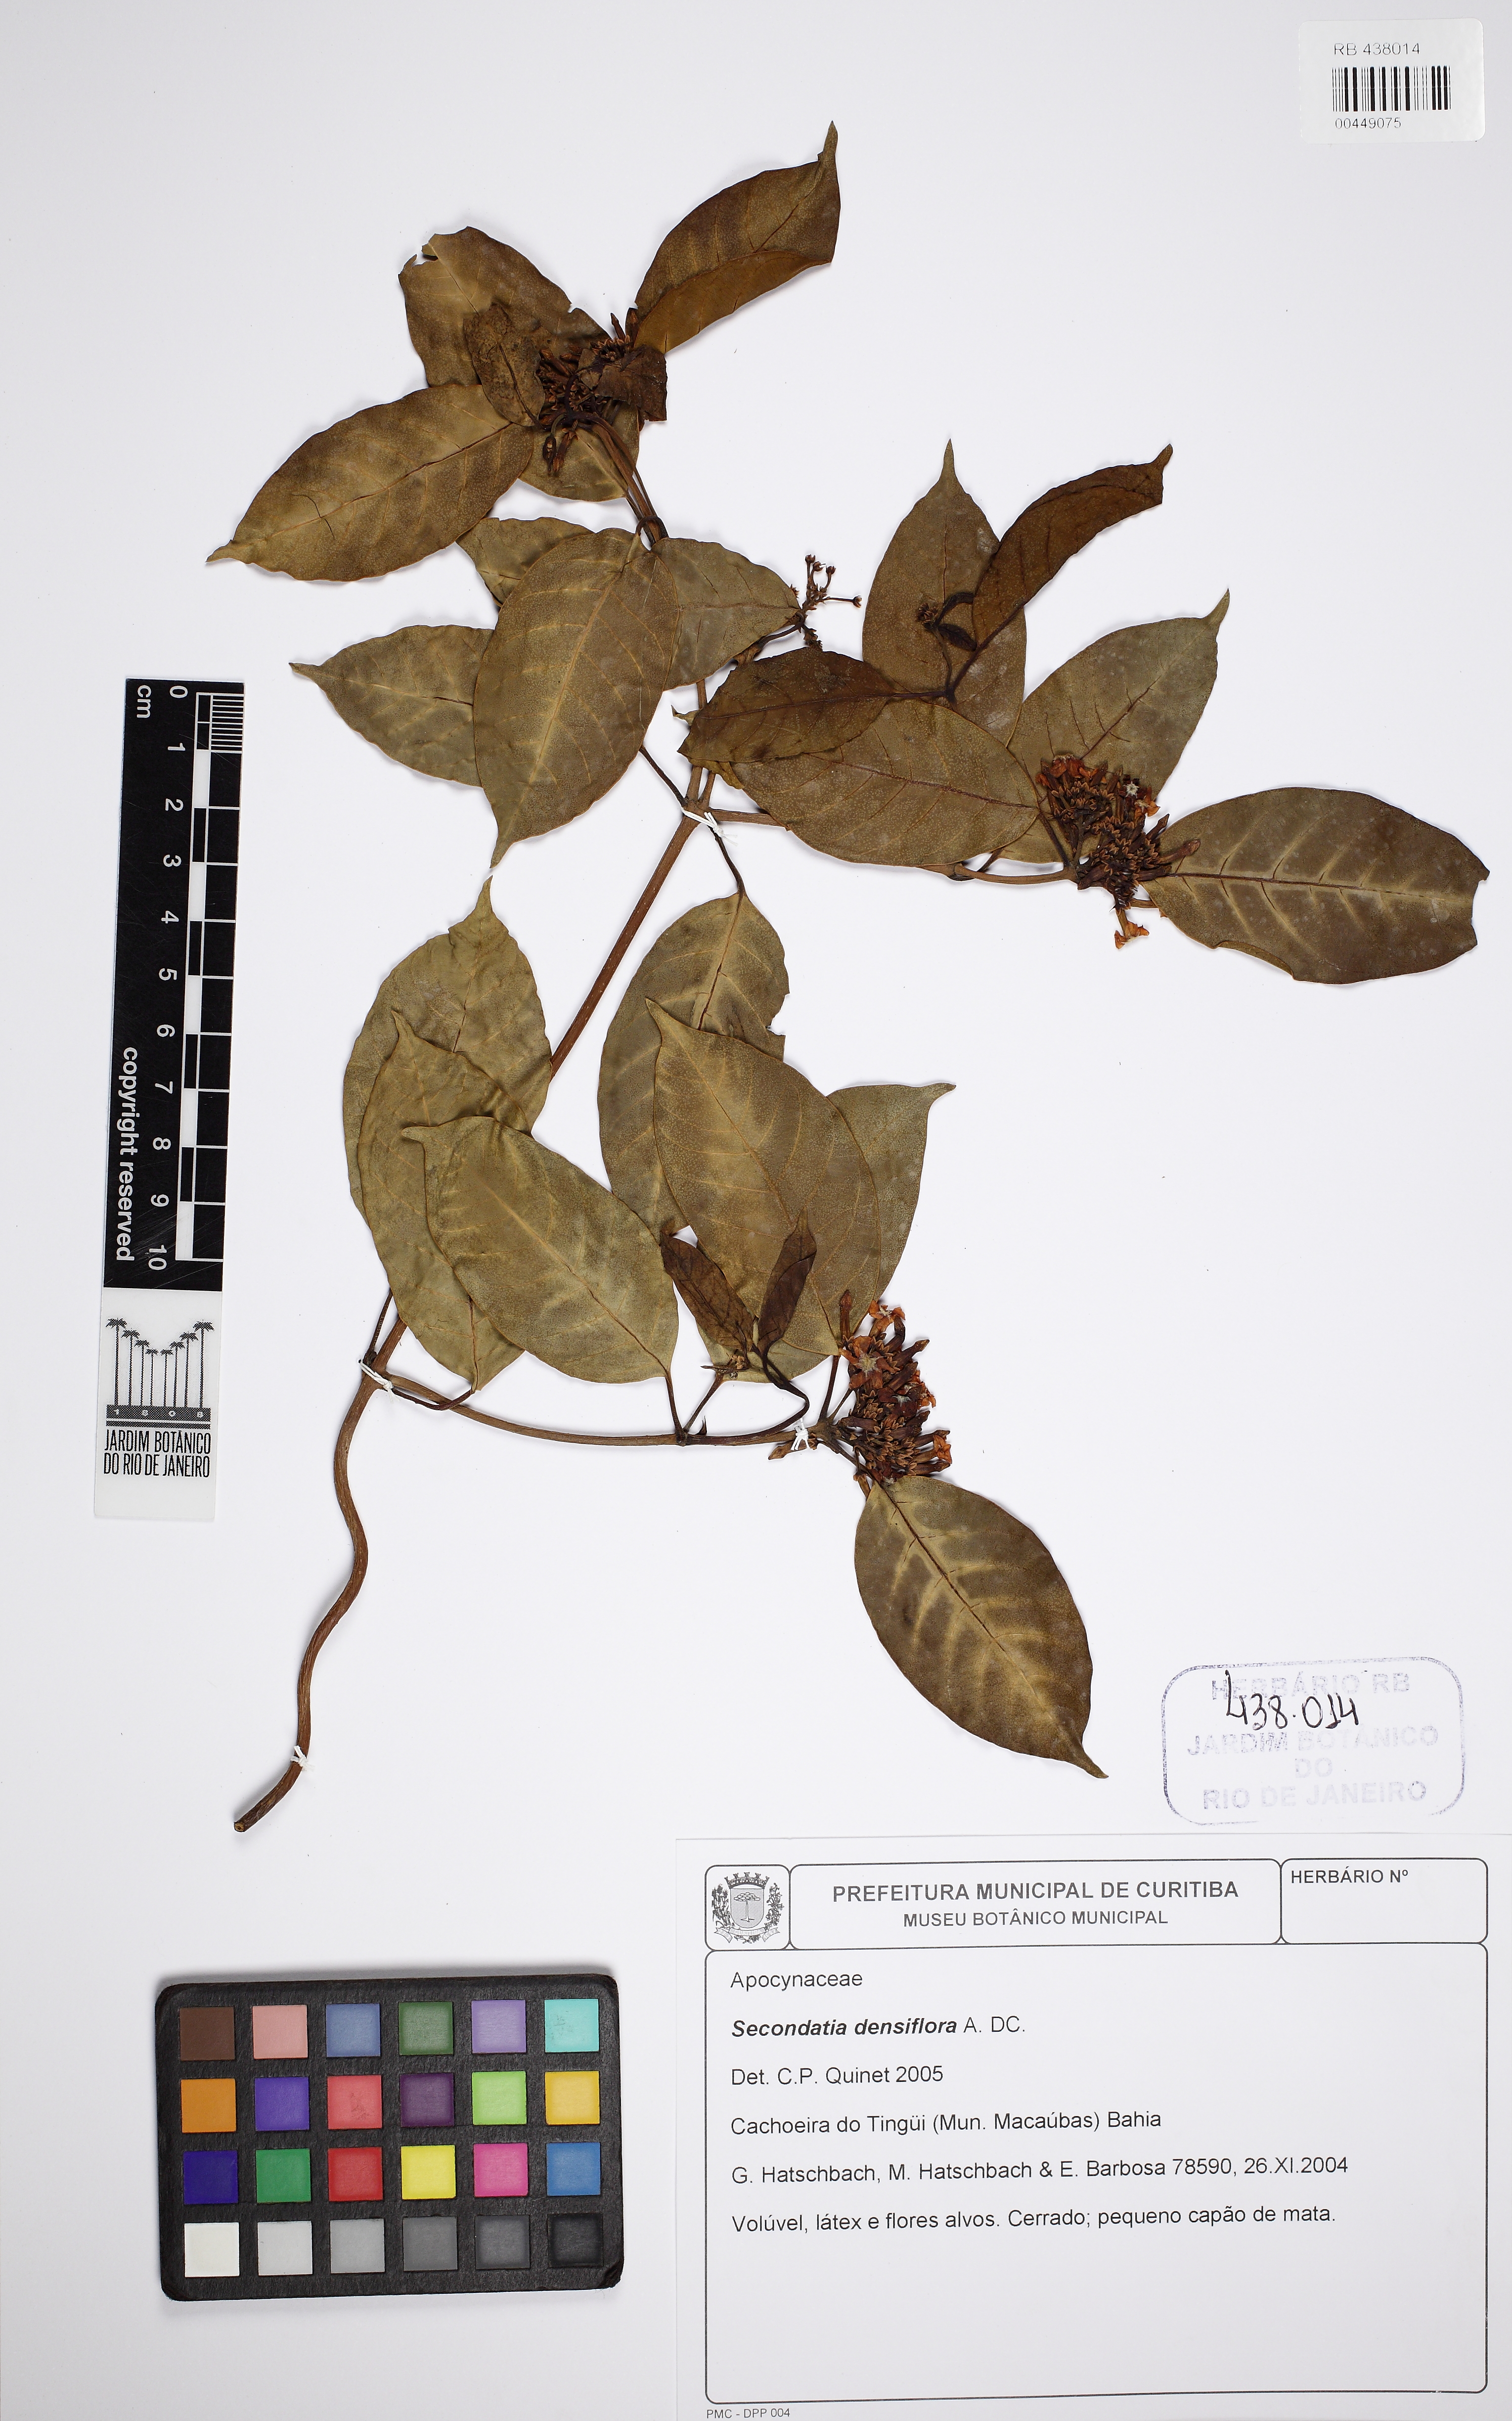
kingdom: Plantae
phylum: Tracheophyta
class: Magnoliopsida
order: Gentianales
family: Apocynaceae
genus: Secondatia
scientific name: Secondatia densiflora
